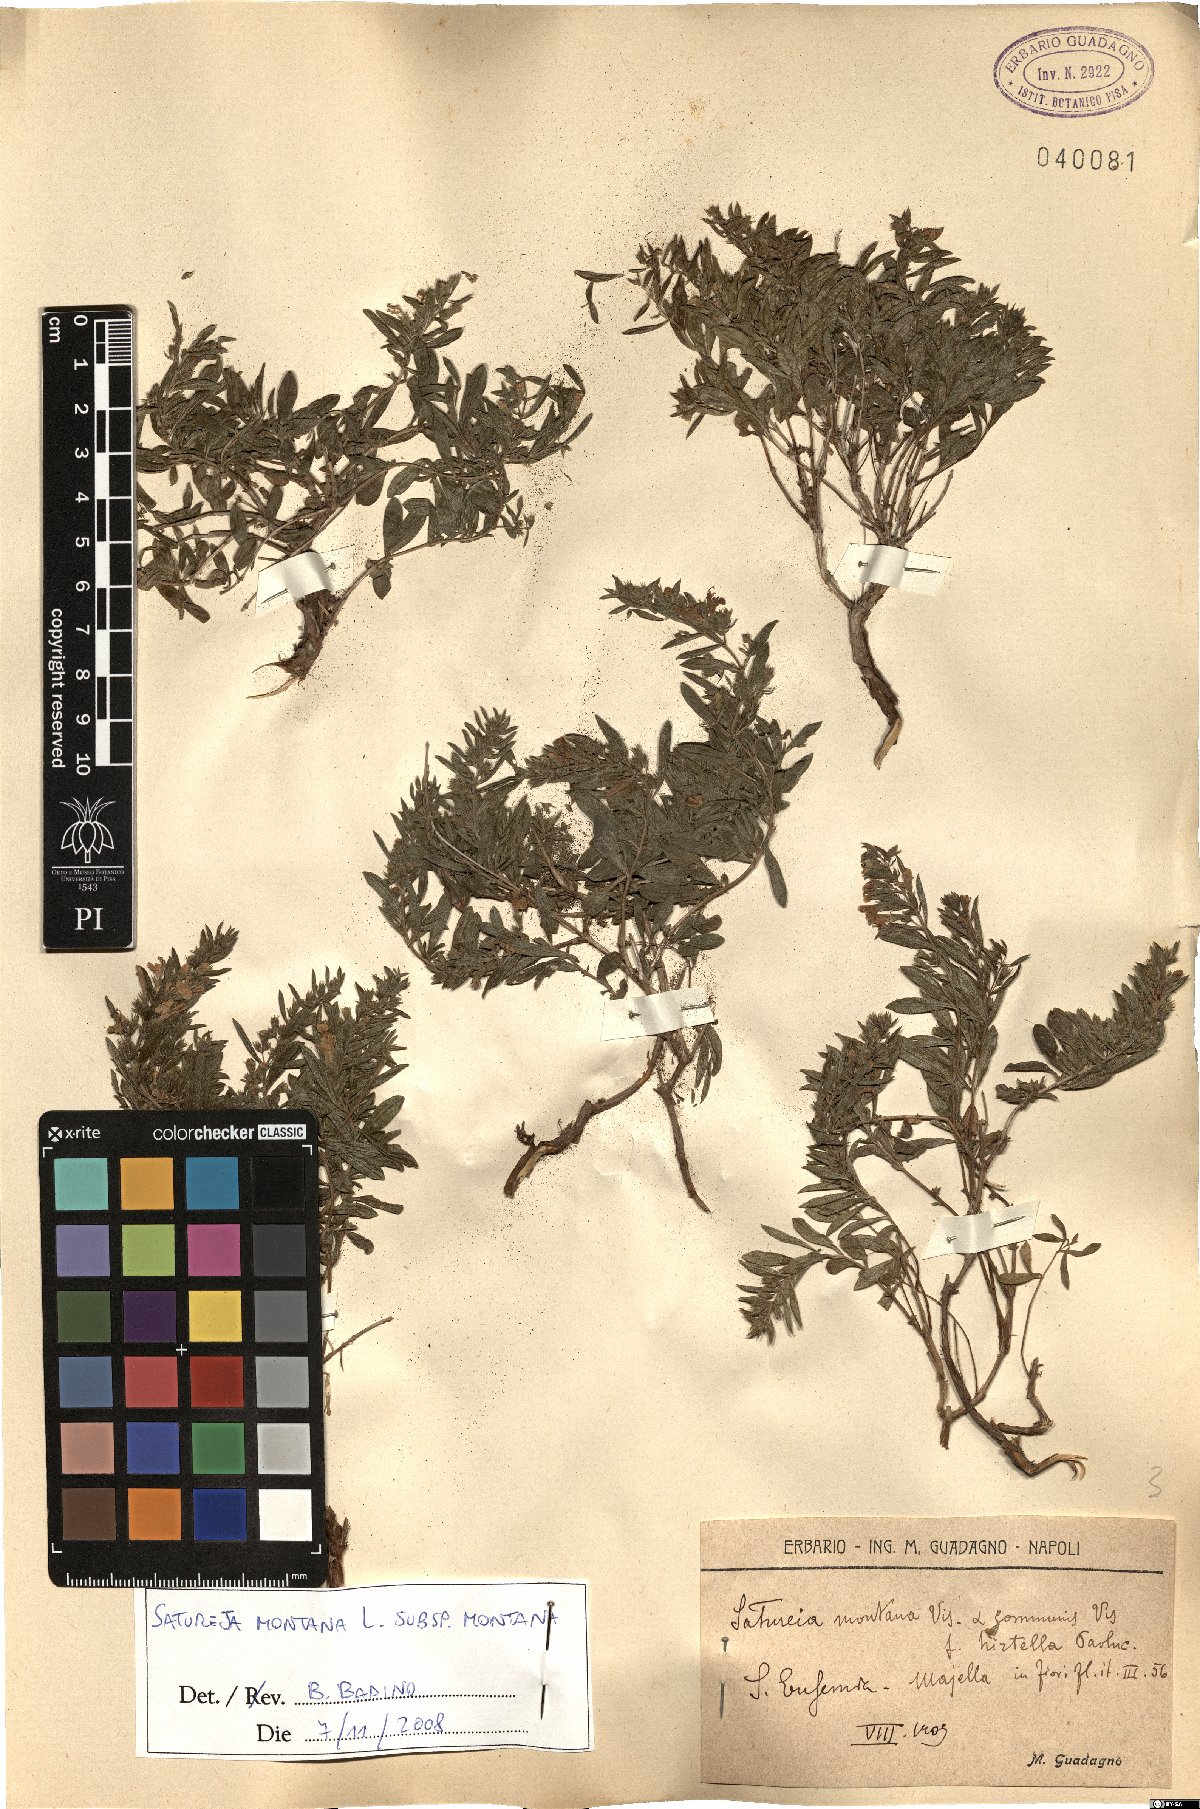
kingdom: Plantae
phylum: Tracheophyta
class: Magnoliopsida
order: Lamiales
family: Lamiaceae
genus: Satureja
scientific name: Satureja montana
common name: Winter savory
